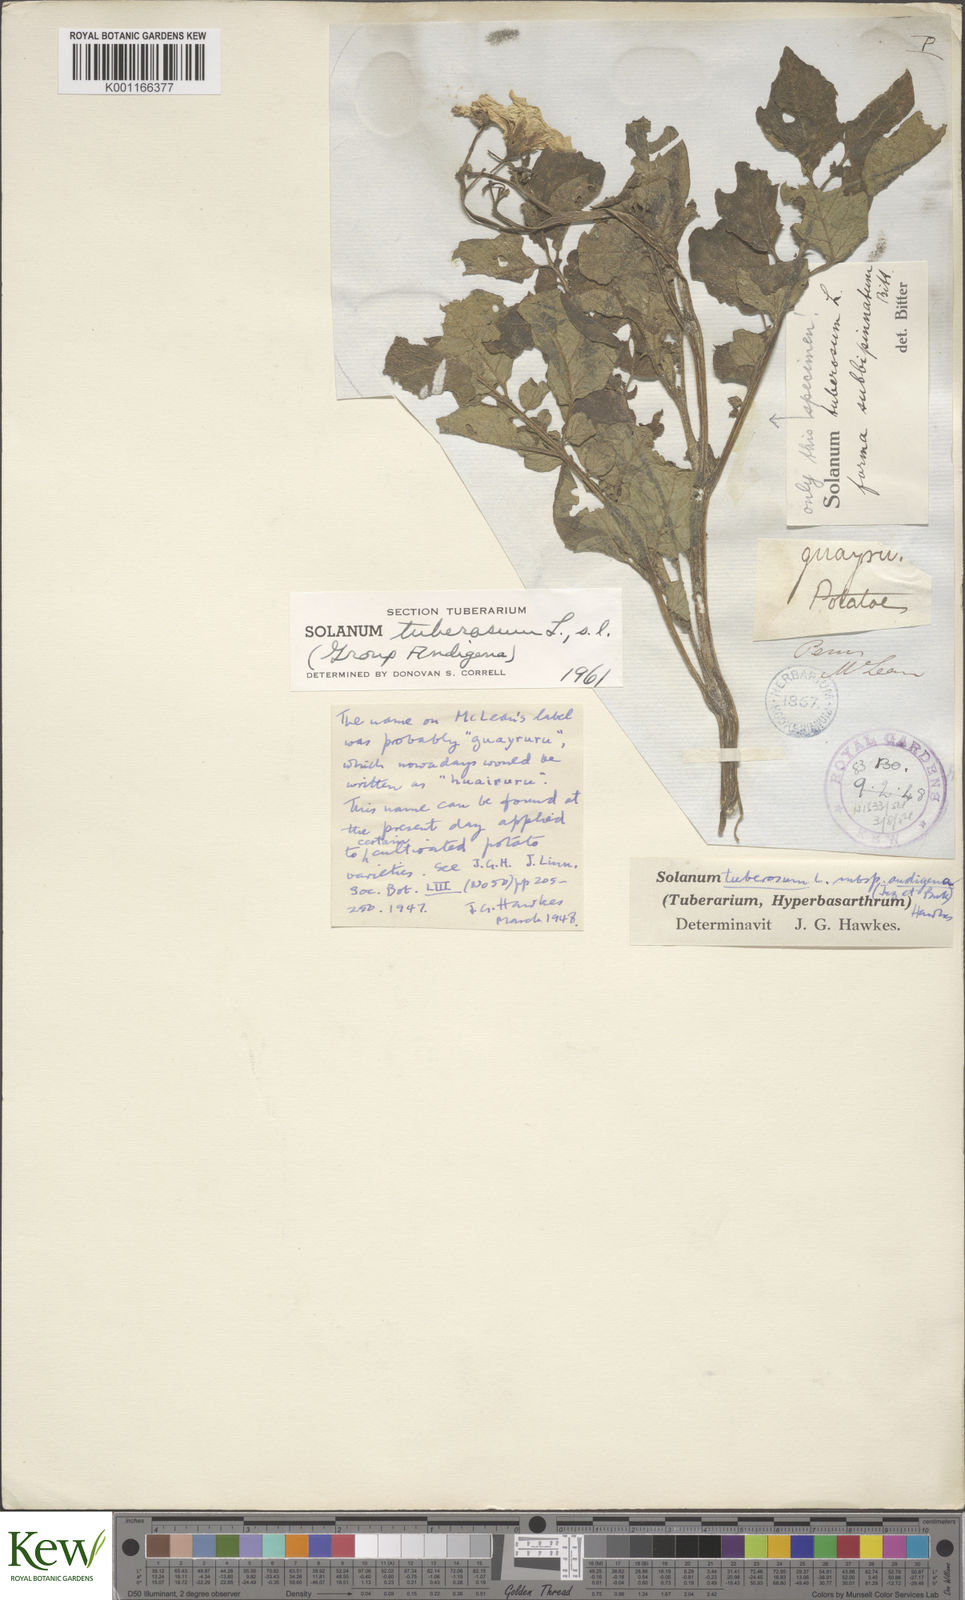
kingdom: Plantae
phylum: Tracheophyta
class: Magnoliopsida
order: Solanales
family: Solanaceae
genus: Solanum
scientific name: Solanum tuberosum
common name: Potato
